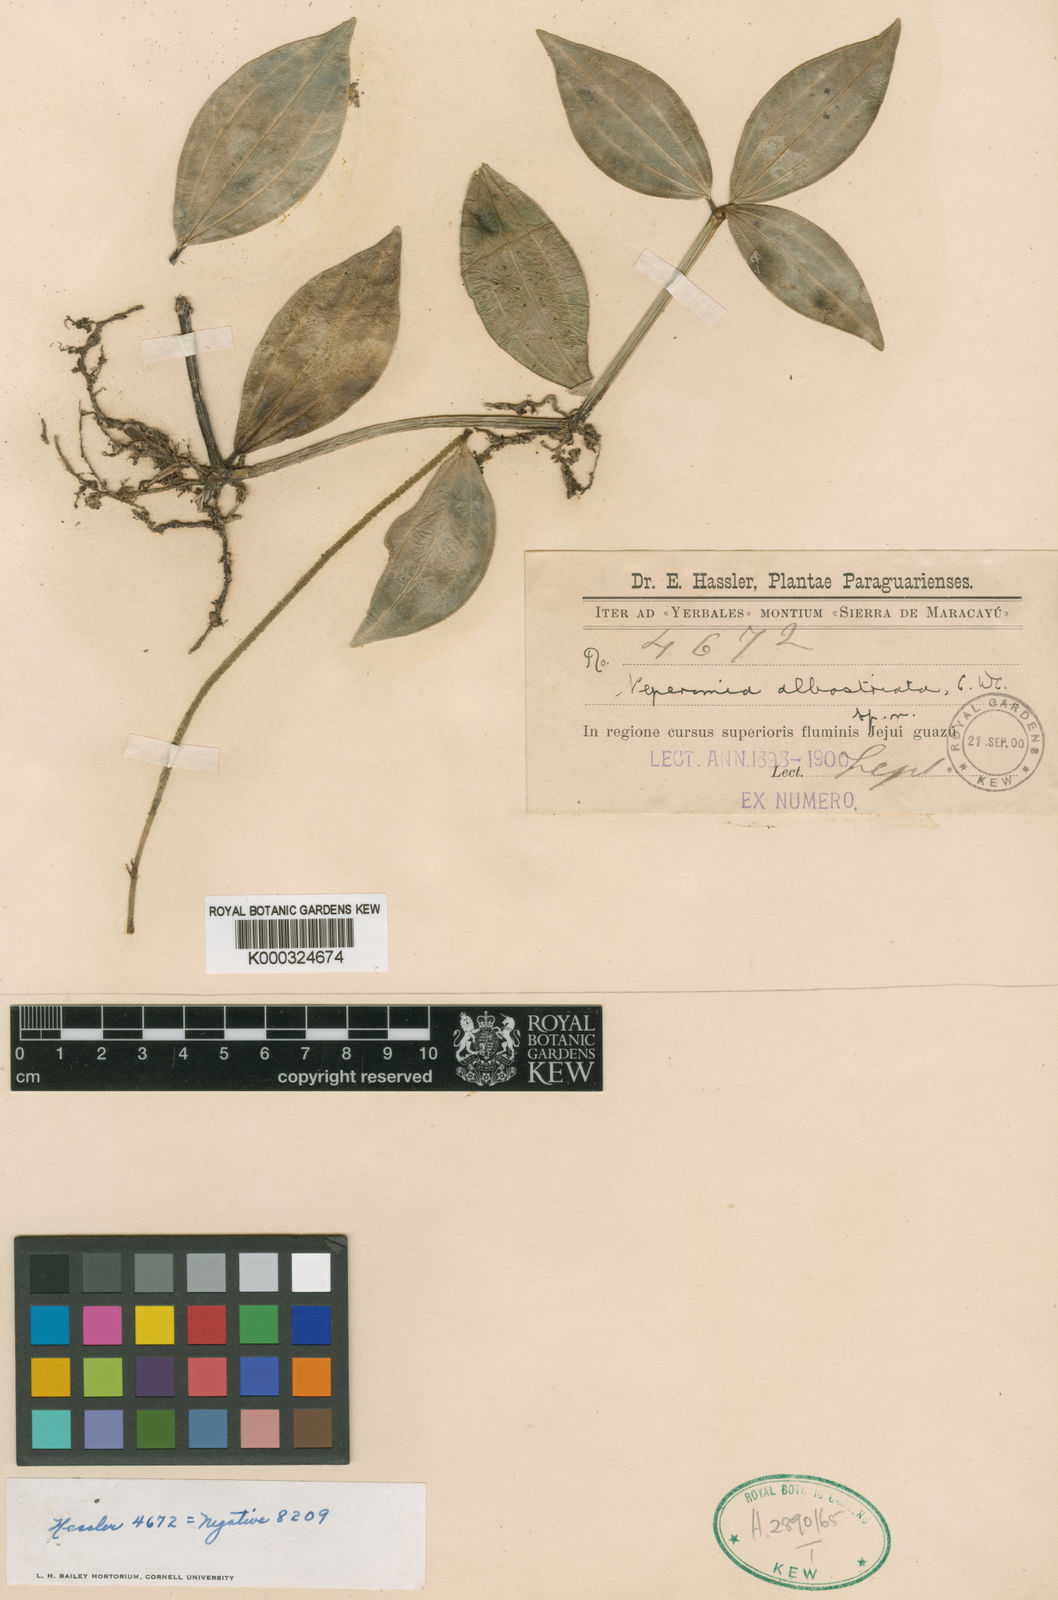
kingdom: Plantae
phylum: Tracheophyta
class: Magnoliopsida
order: Piperales
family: Piperaceae
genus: Peperomia
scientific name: Peperomia tetragona
